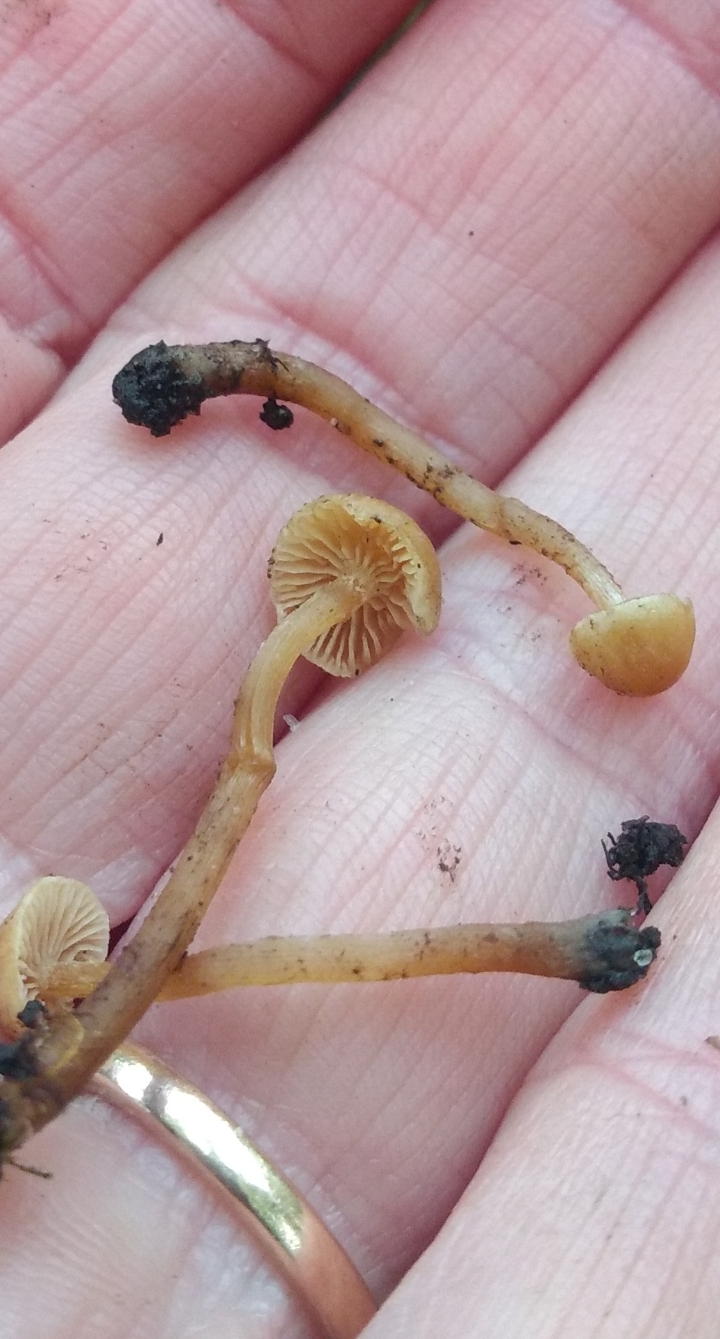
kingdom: Fungi
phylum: Basidiomycota
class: Agaricomycetes
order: Agaricales
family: Hymenogastraceae
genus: Naucoria
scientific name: Naucoria escharioides
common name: lys elle-knaphat
